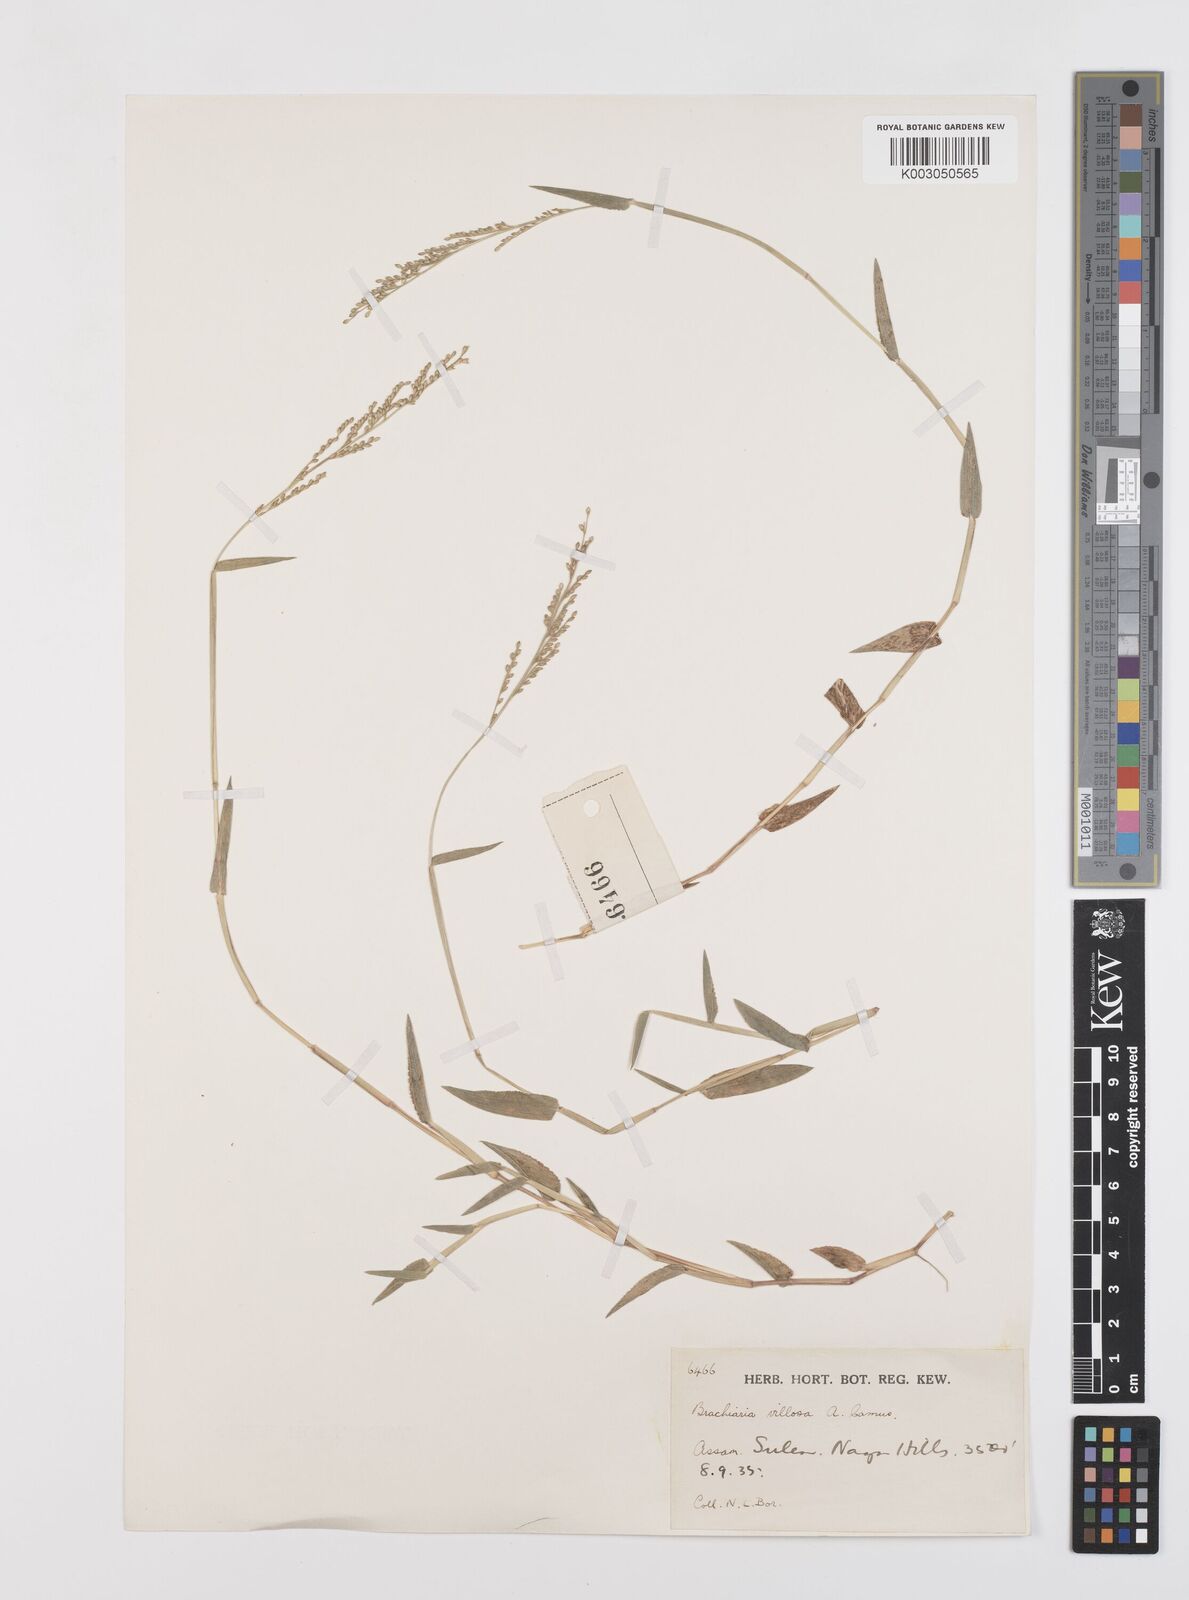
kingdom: Plantae
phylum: Tracheophyta
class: Liliopsida
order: Poales
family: Poaceae
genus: Urochloa
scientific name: Urochloa villosa
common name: Hairy signalgrass
